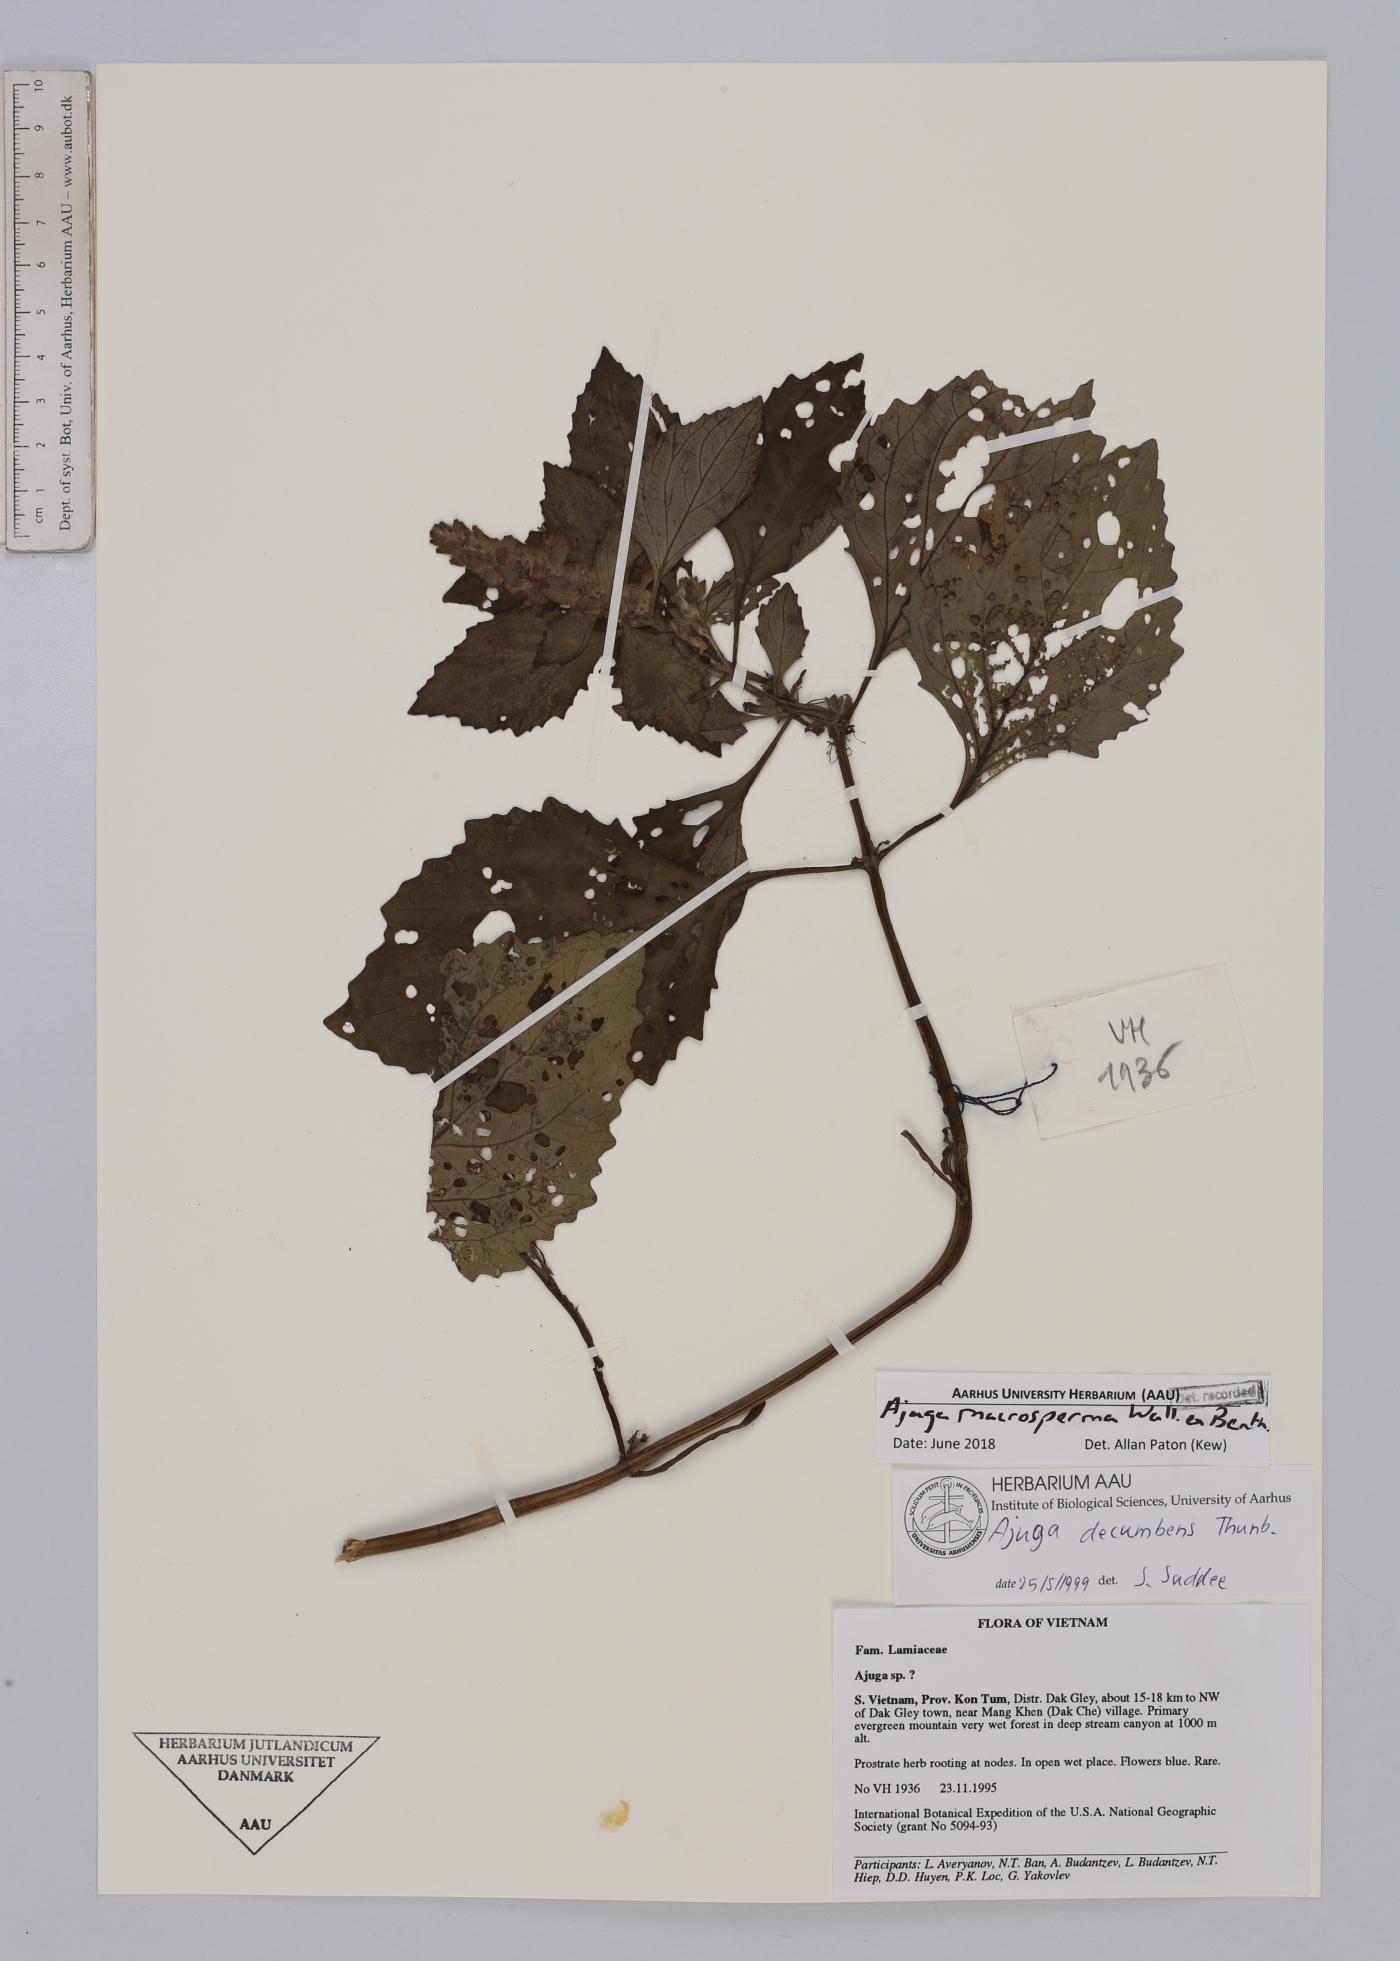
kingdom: Plantae
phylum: Tracheophyta
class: Magnoliopsida
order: Lamiales
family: Lamiaceae
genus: Ajuga
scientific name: Ajuga macrosperma
